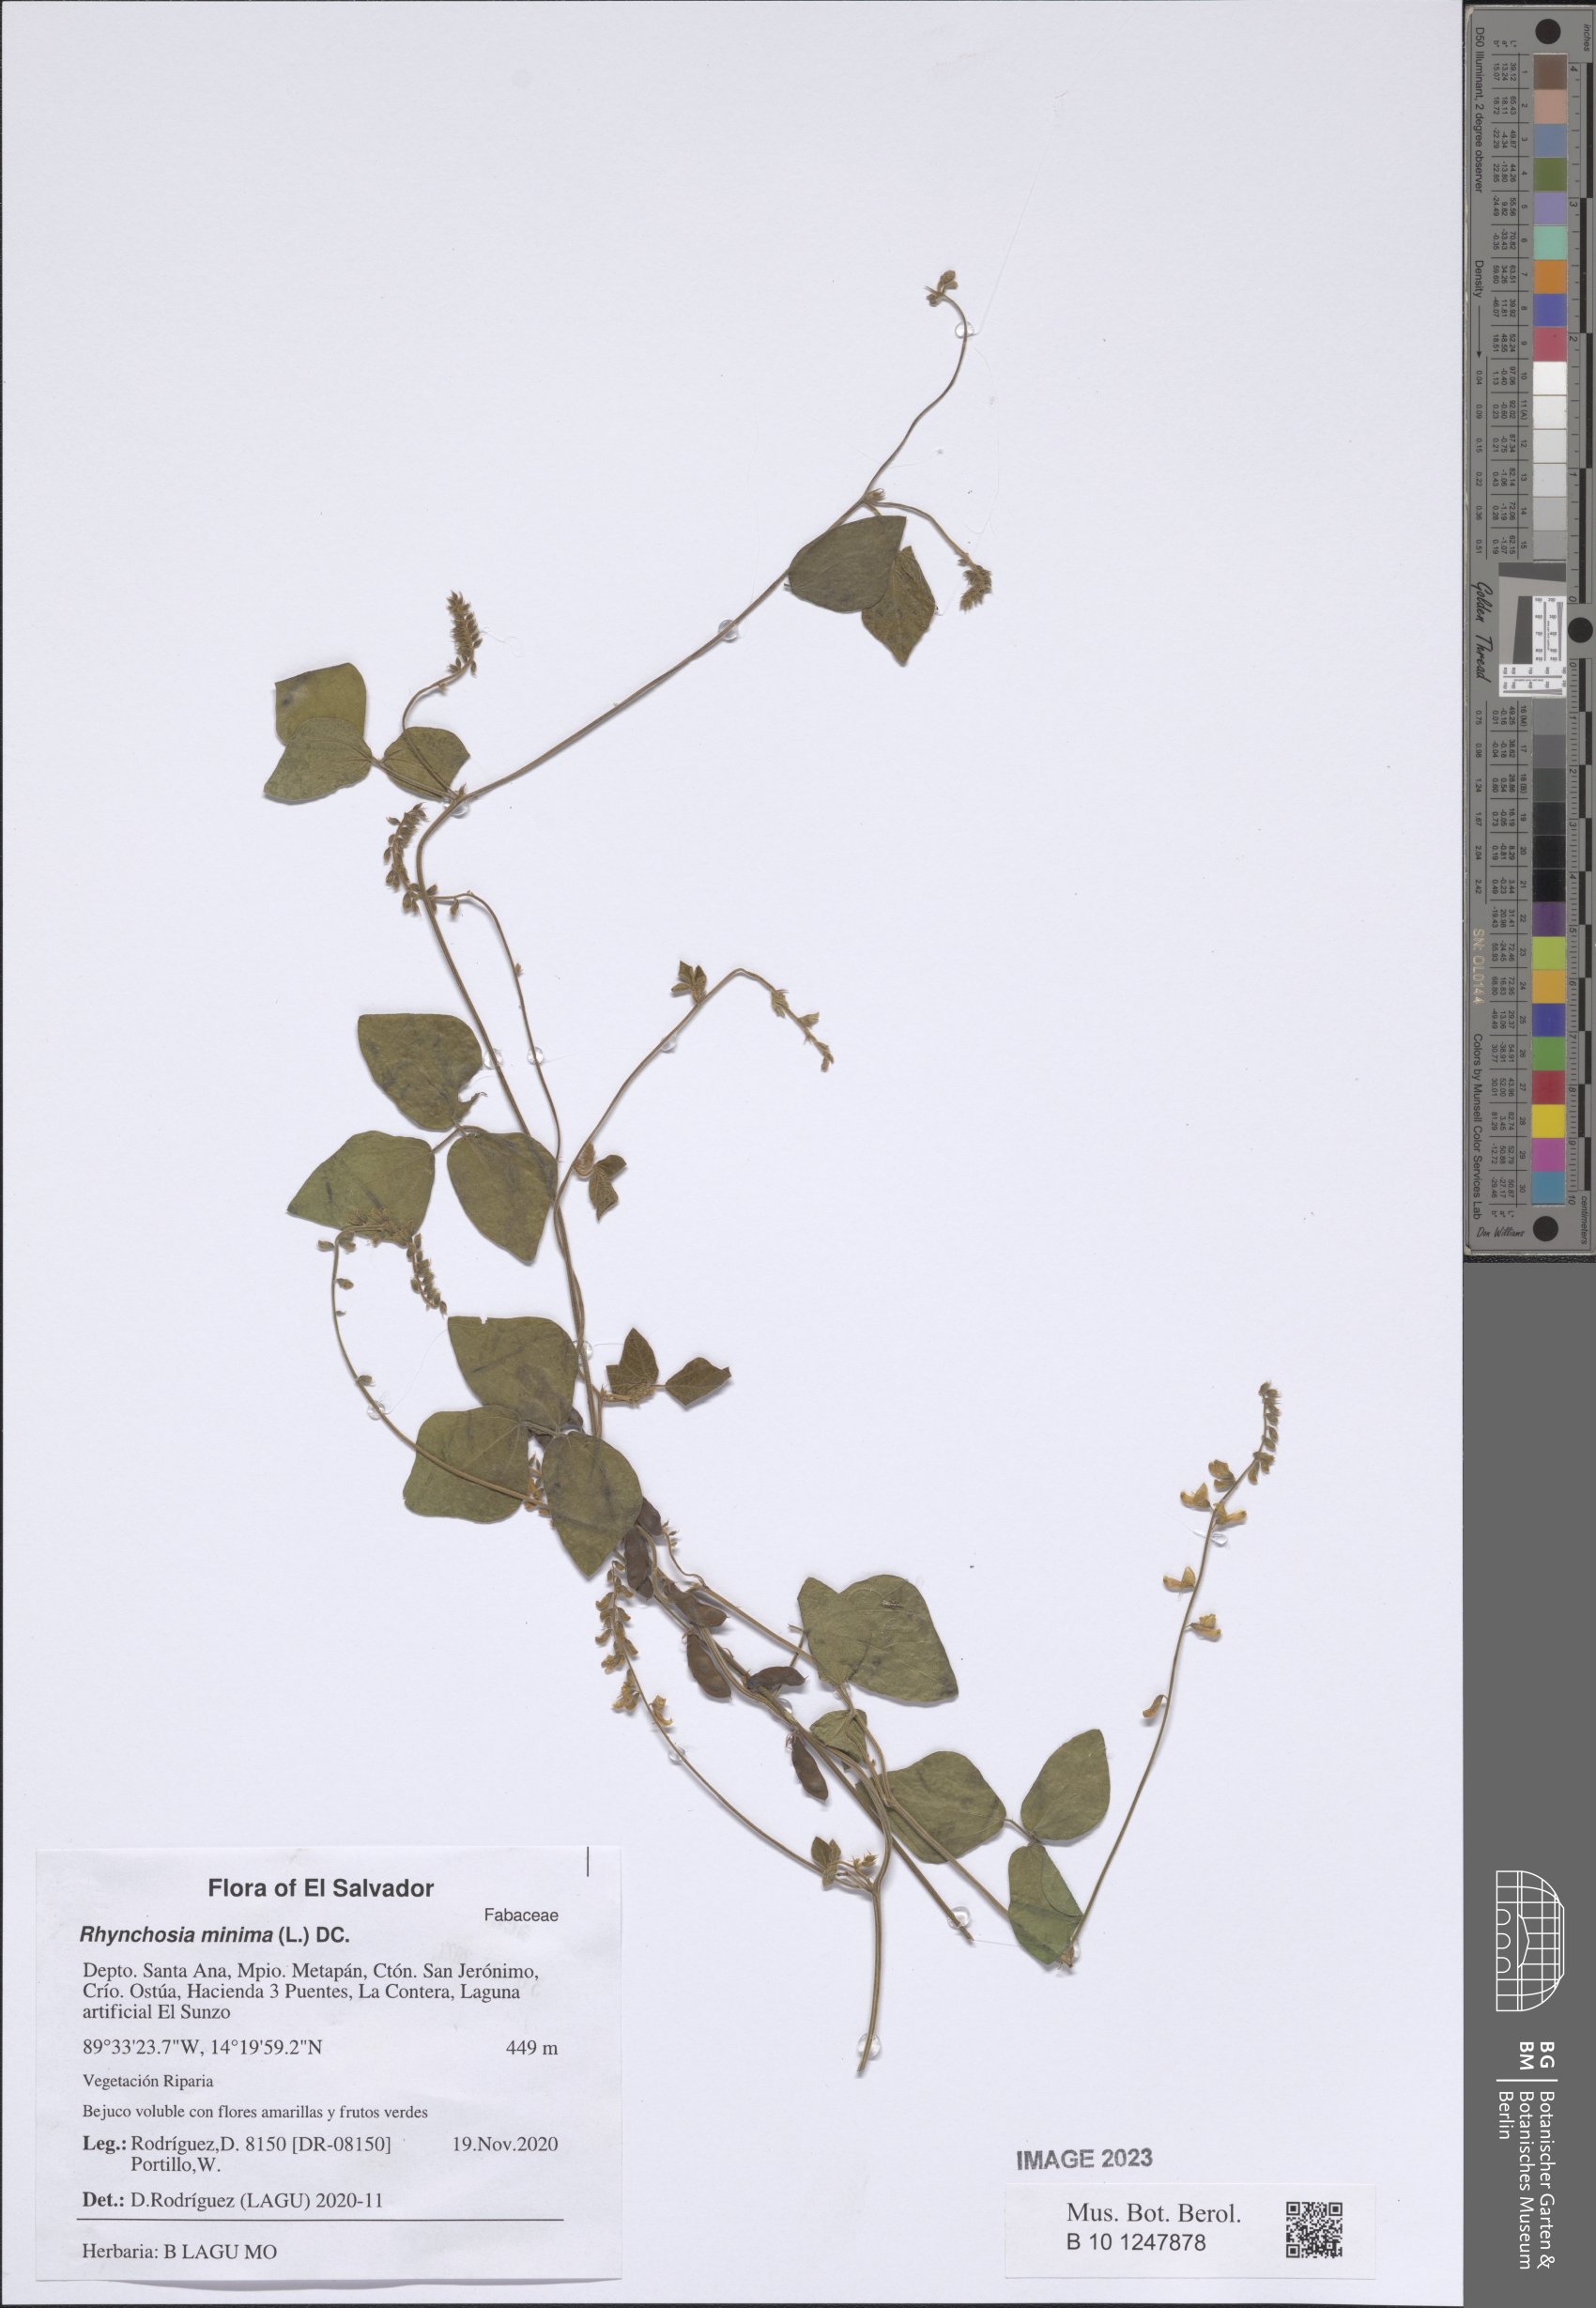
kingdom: Plantae
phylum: Tracheophyta
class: Magnoliopsida
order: Fabales
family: Fabaceae
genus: Rhynchosia
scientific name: Rhynchosia minima
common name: Least snoutbean
